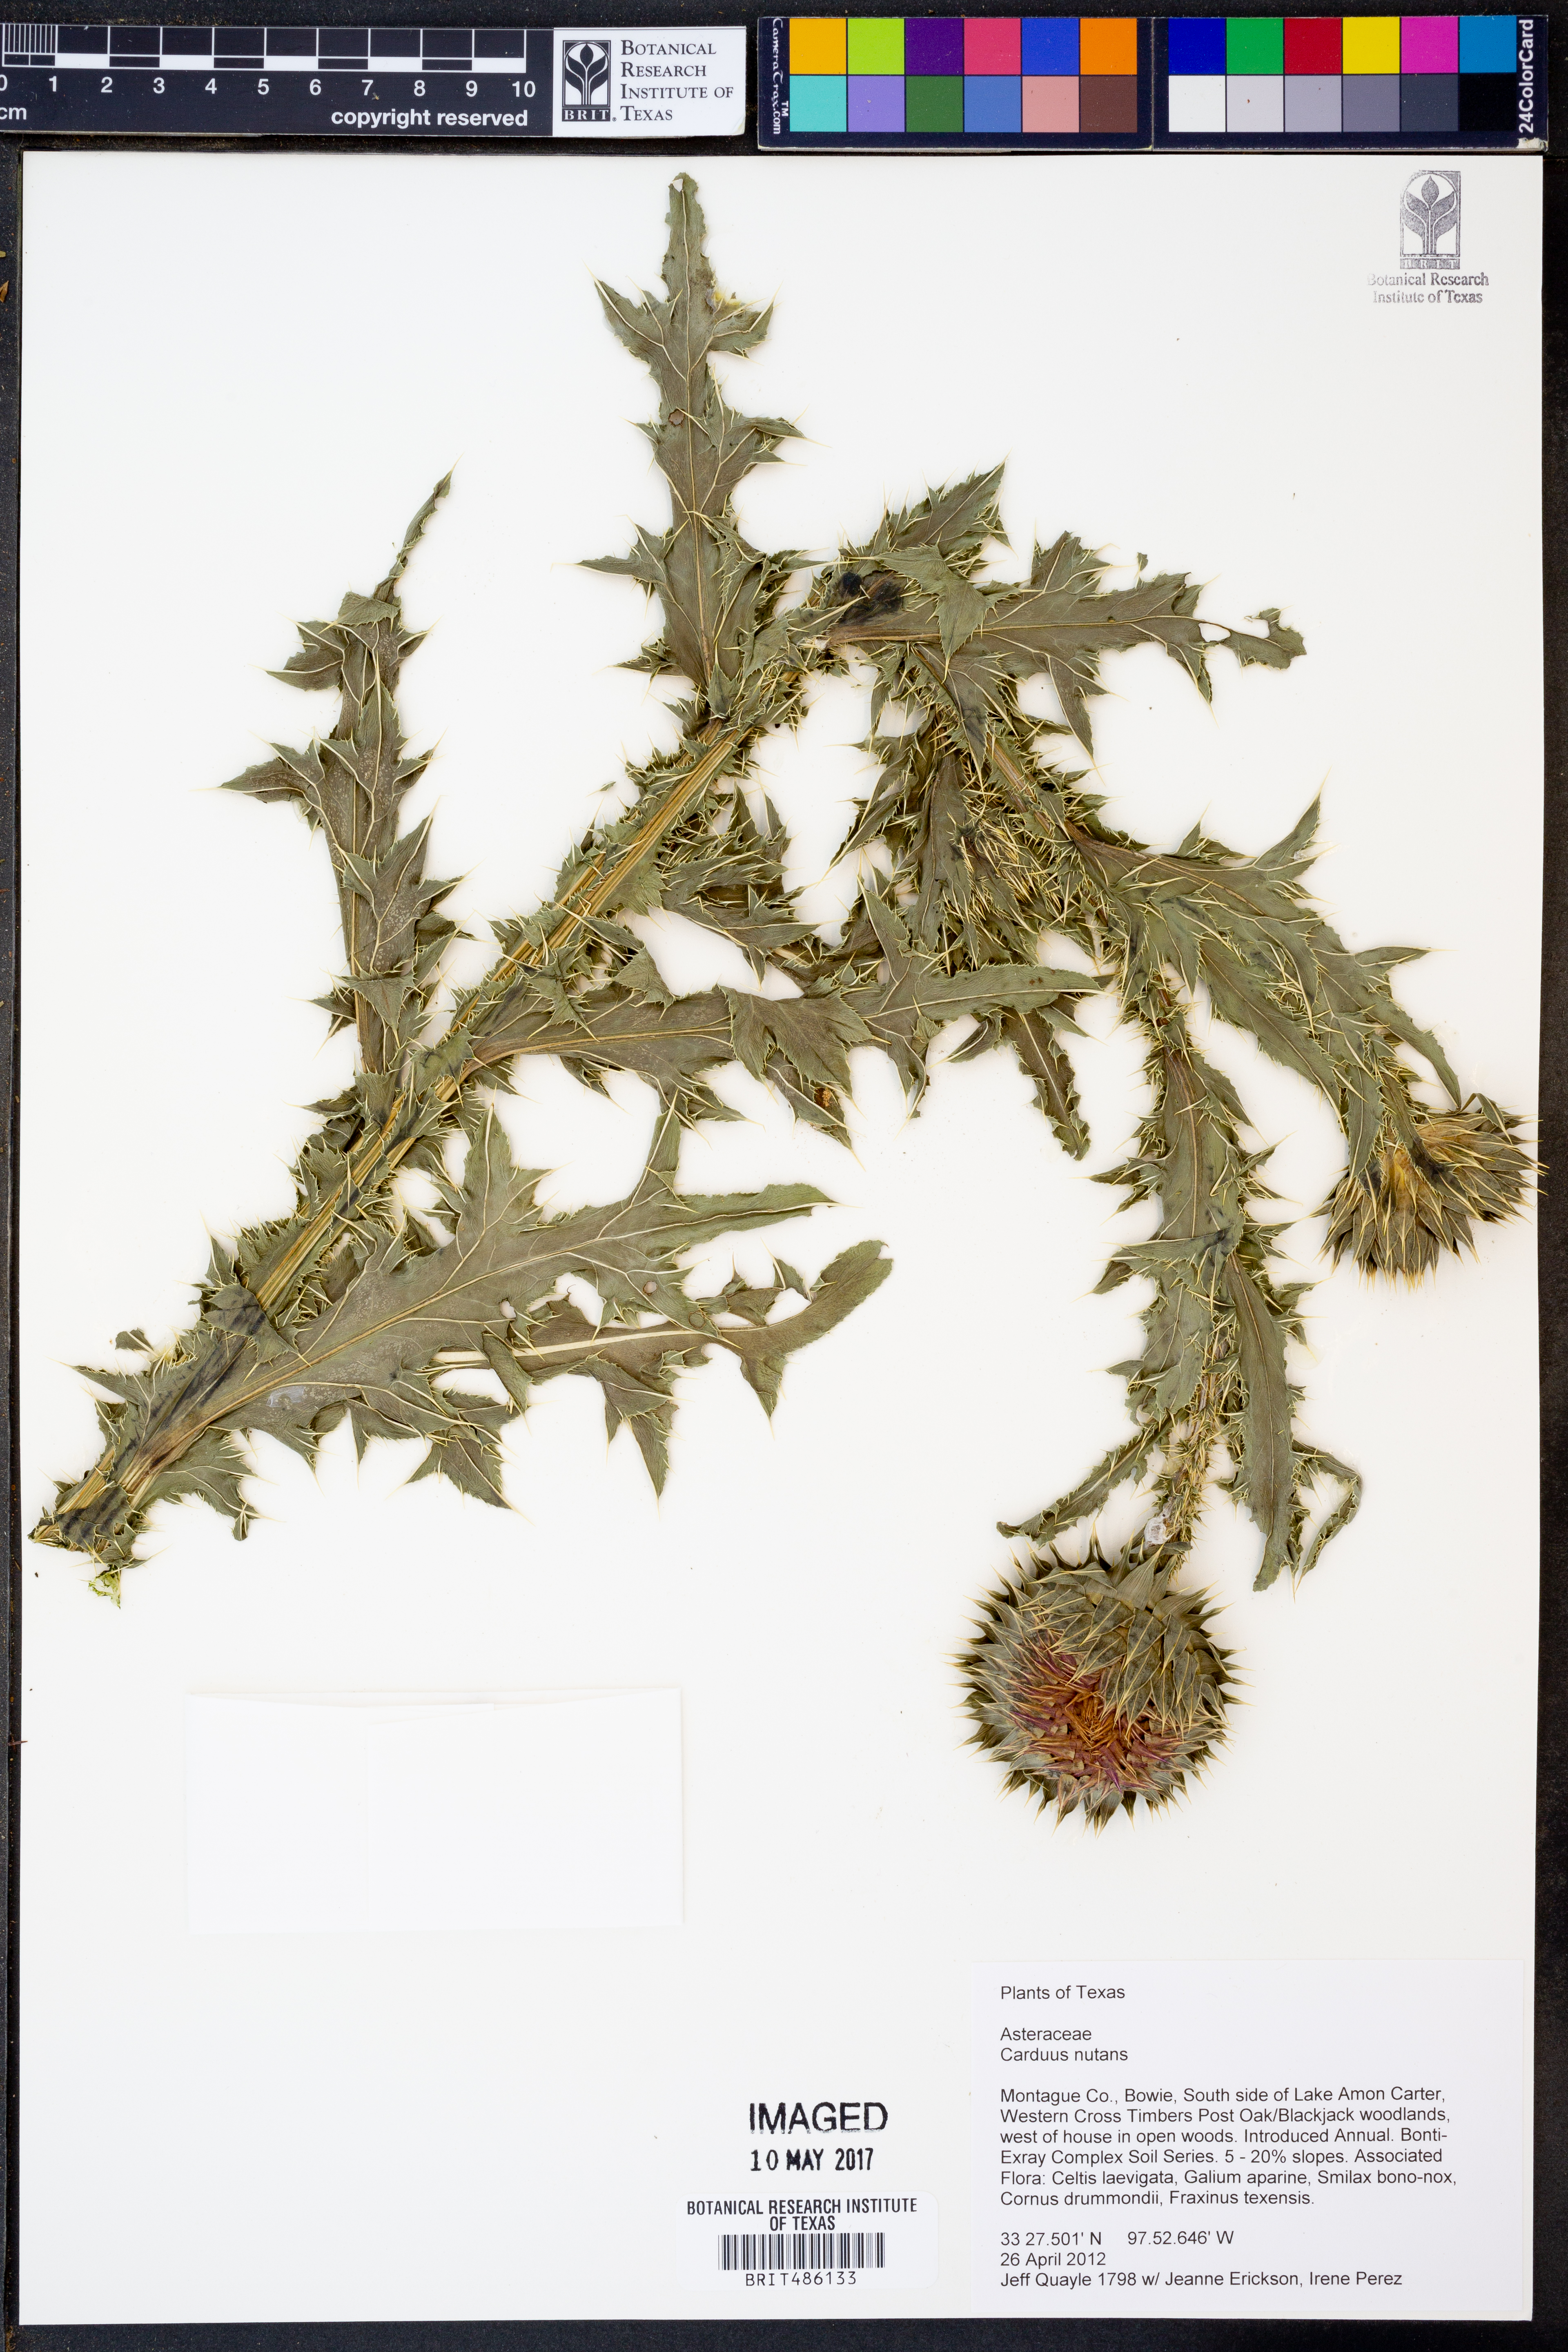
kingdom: Plantae
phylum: Tracheophyta
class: Magnoliopsida
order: Asterales
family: Asteraceae
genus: Carduus
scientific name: Carduus nutans
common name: Musk thistle
